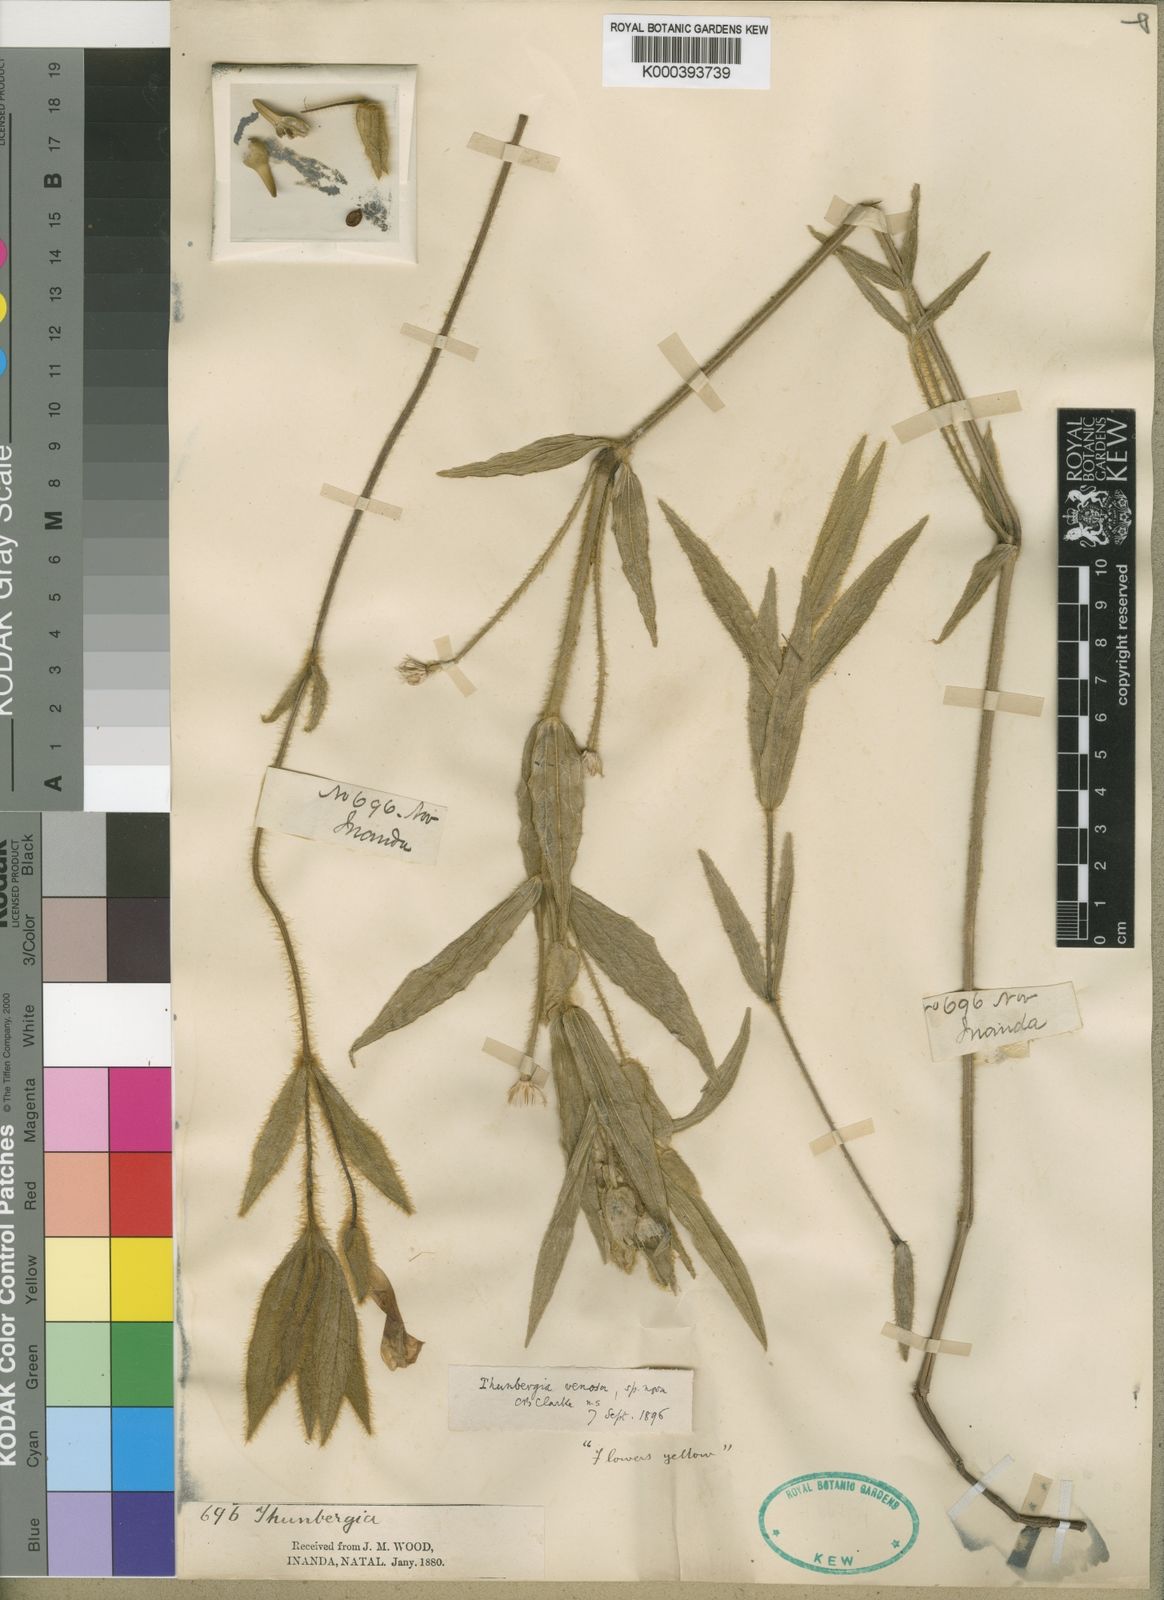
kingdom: Plantae
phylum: Tracheophyta
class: Magnoliopsida
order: Lamiales
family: Acanthaceae
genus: Thunbergia
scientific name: Thunbergia venosa
